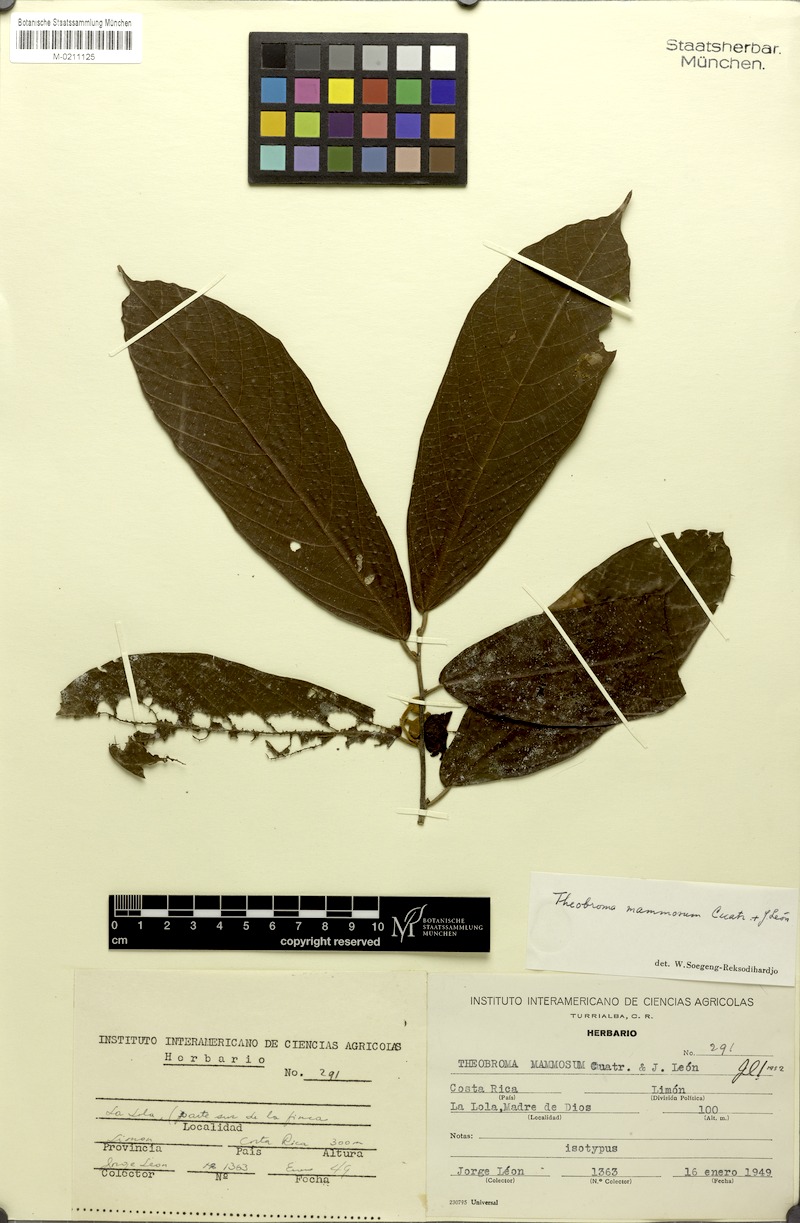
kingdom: Plantae
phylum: Tracheophyta
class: Magnoliopsida
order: Malvales
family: Malvaceae
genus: Theobroma
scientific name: Theobroma mammosum
